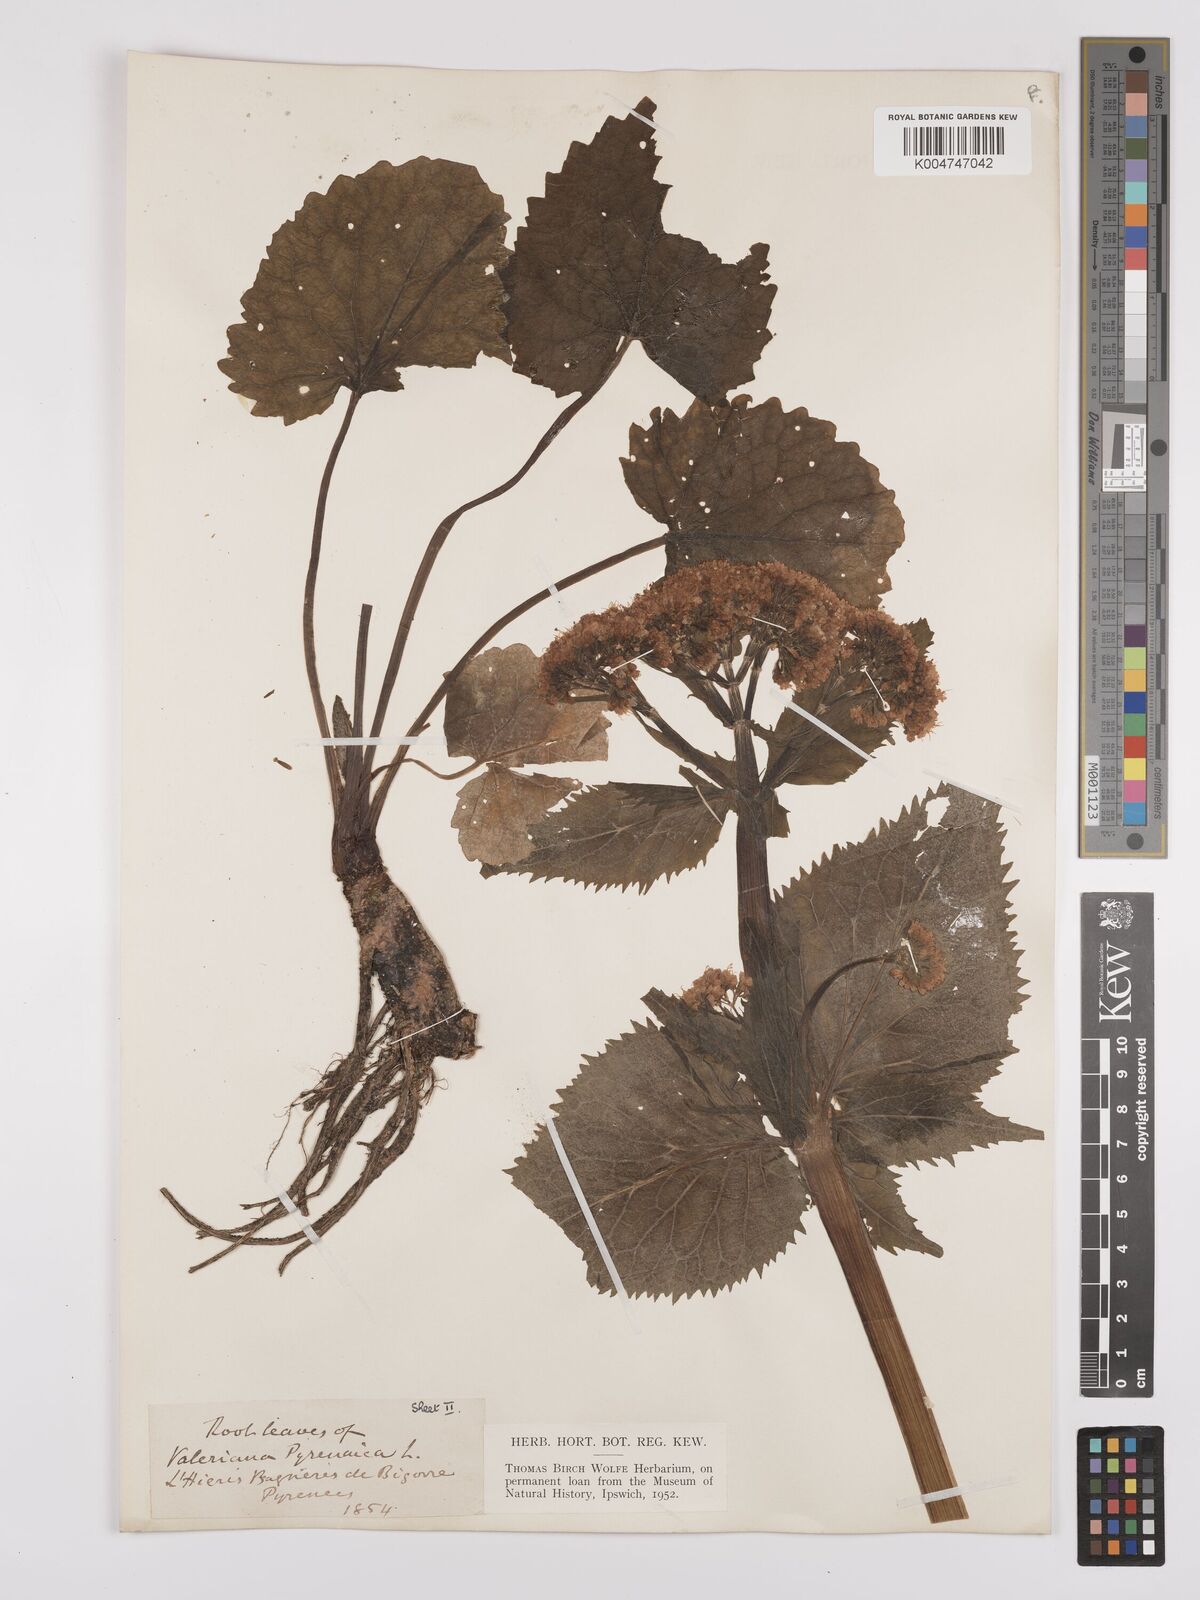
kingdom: Plantae
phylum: Tracheophyta
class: Magnoliopsida
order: Dipsacales
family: Caprifoliaceae
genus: Valeriana
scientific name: Valeriana pyrenaica
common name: Pyrenean valerian
